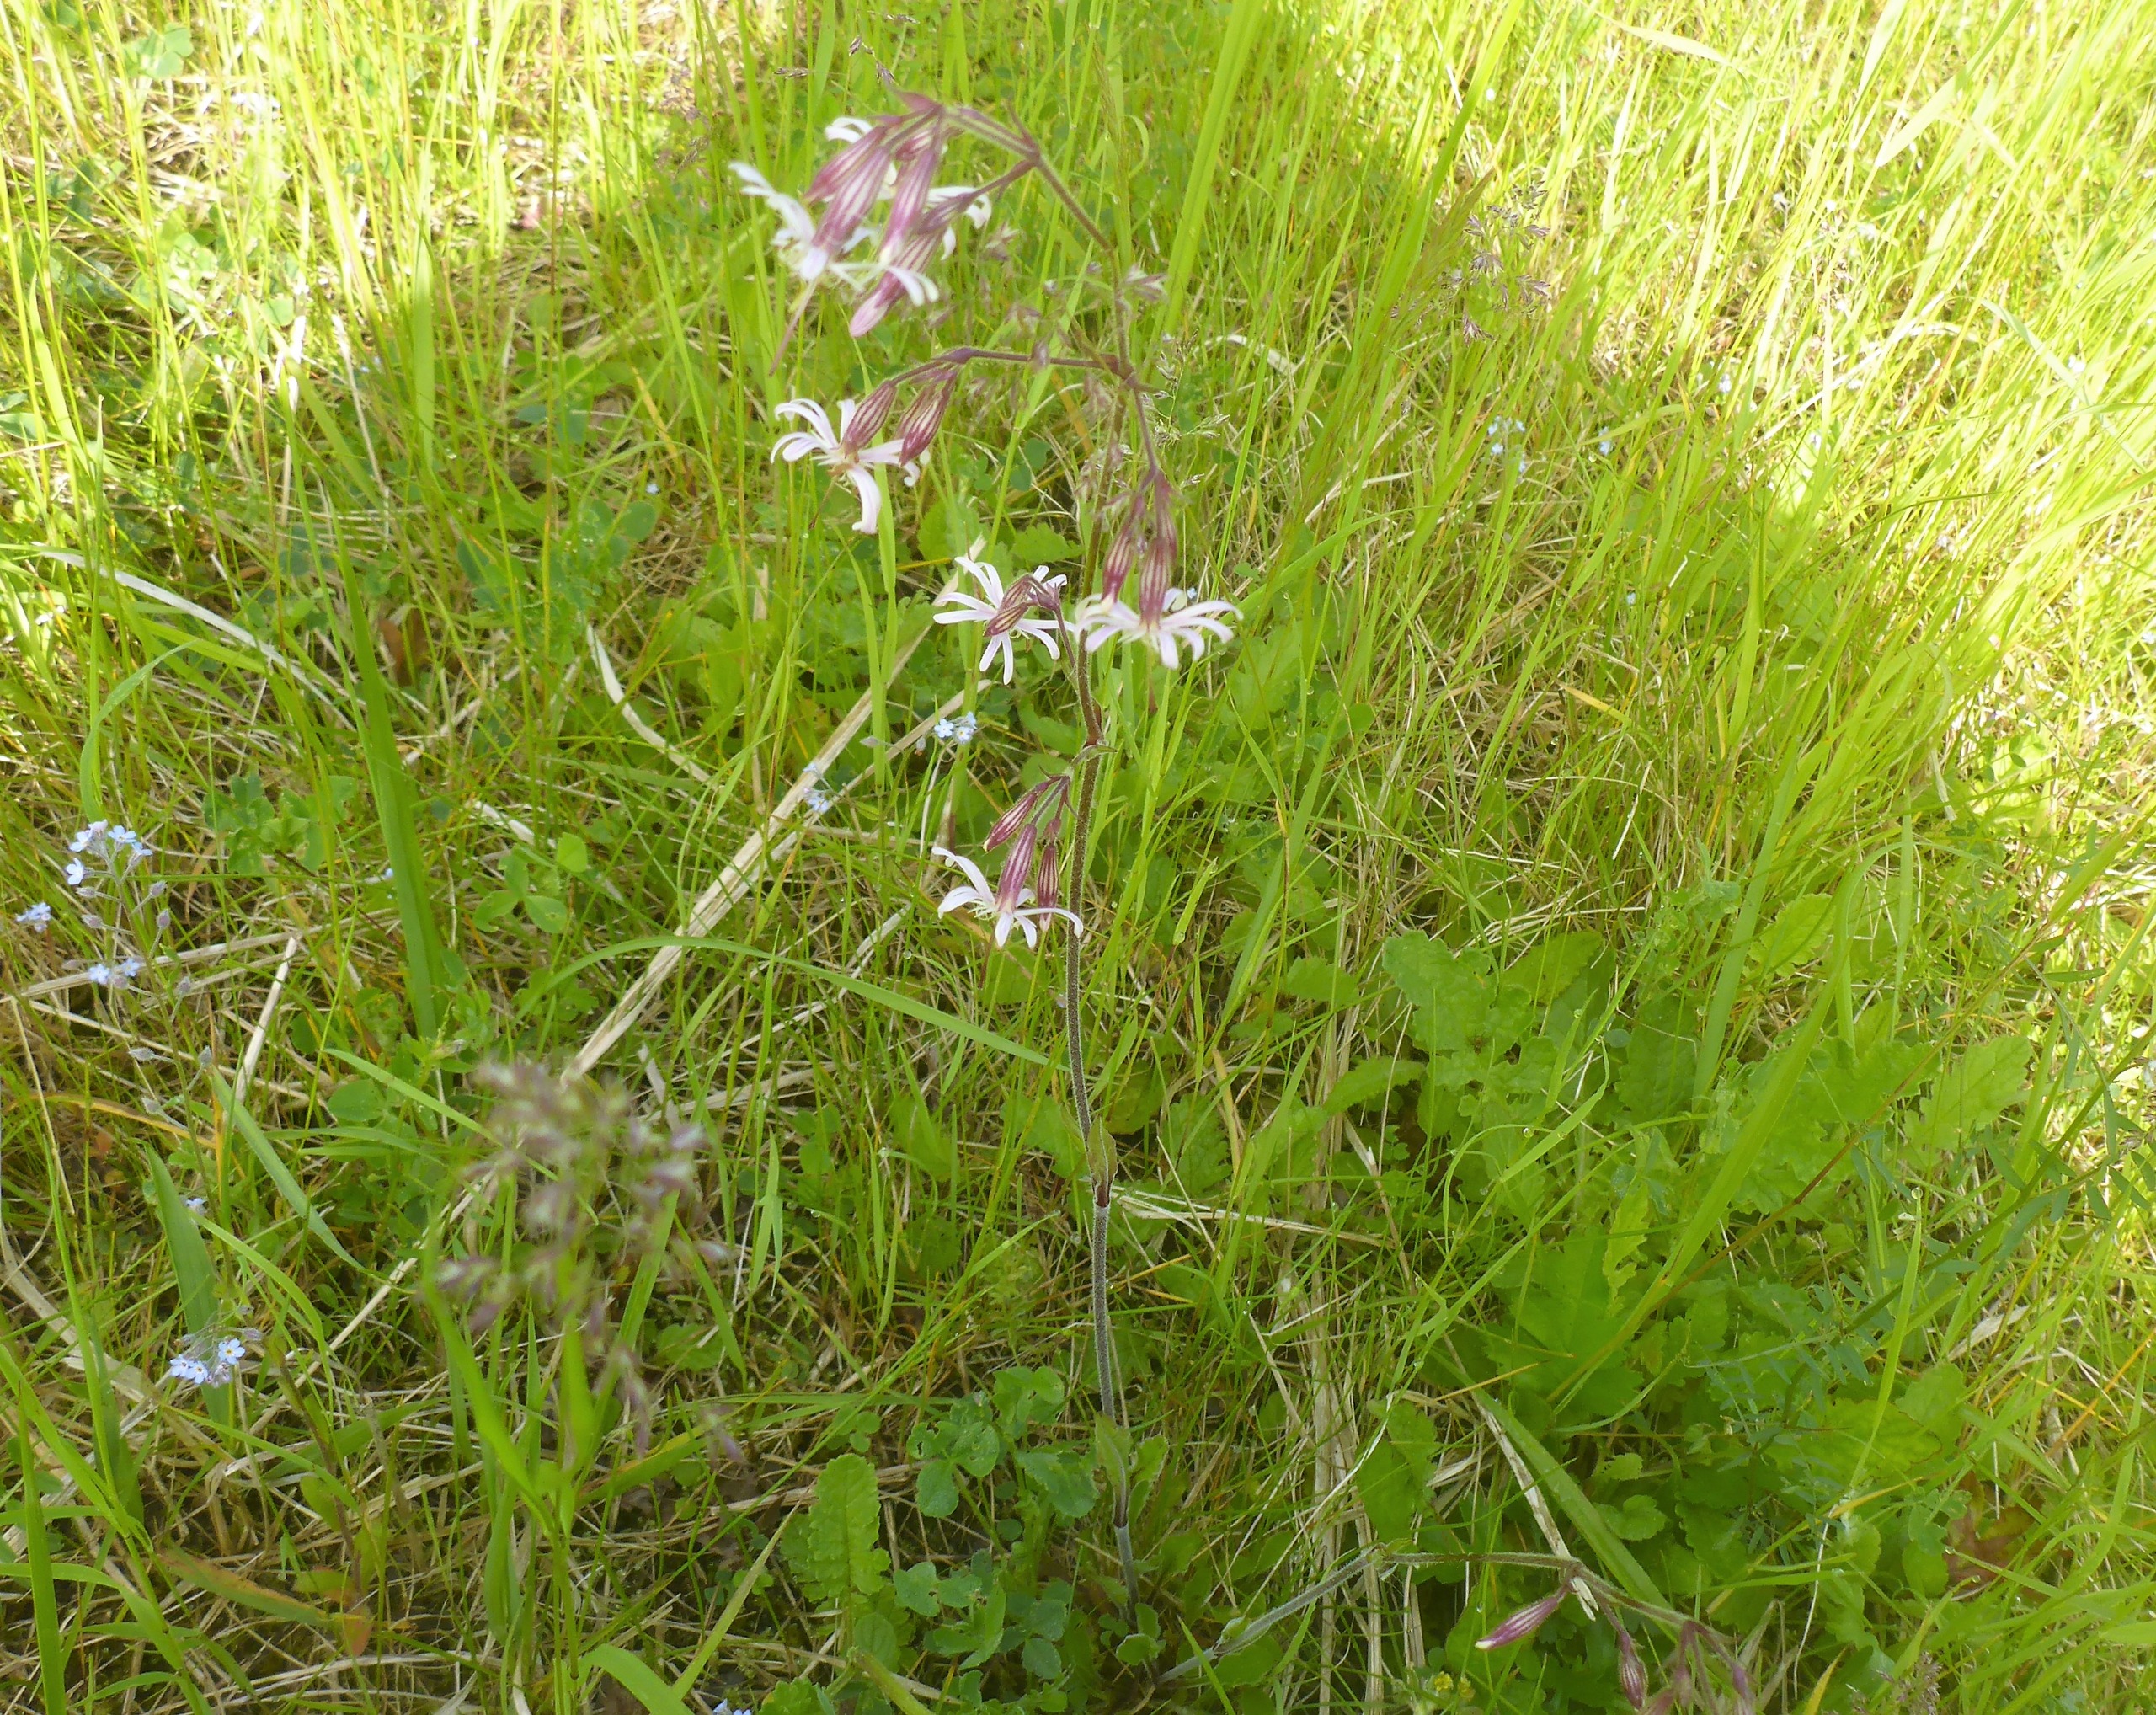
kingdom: Plantae
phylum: Tracheophyta
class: Magnoliopsida
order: Caryophyllales
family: Caryophyllaceae
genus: Silene
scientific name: Silene nutans
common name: Nikkende limurt
